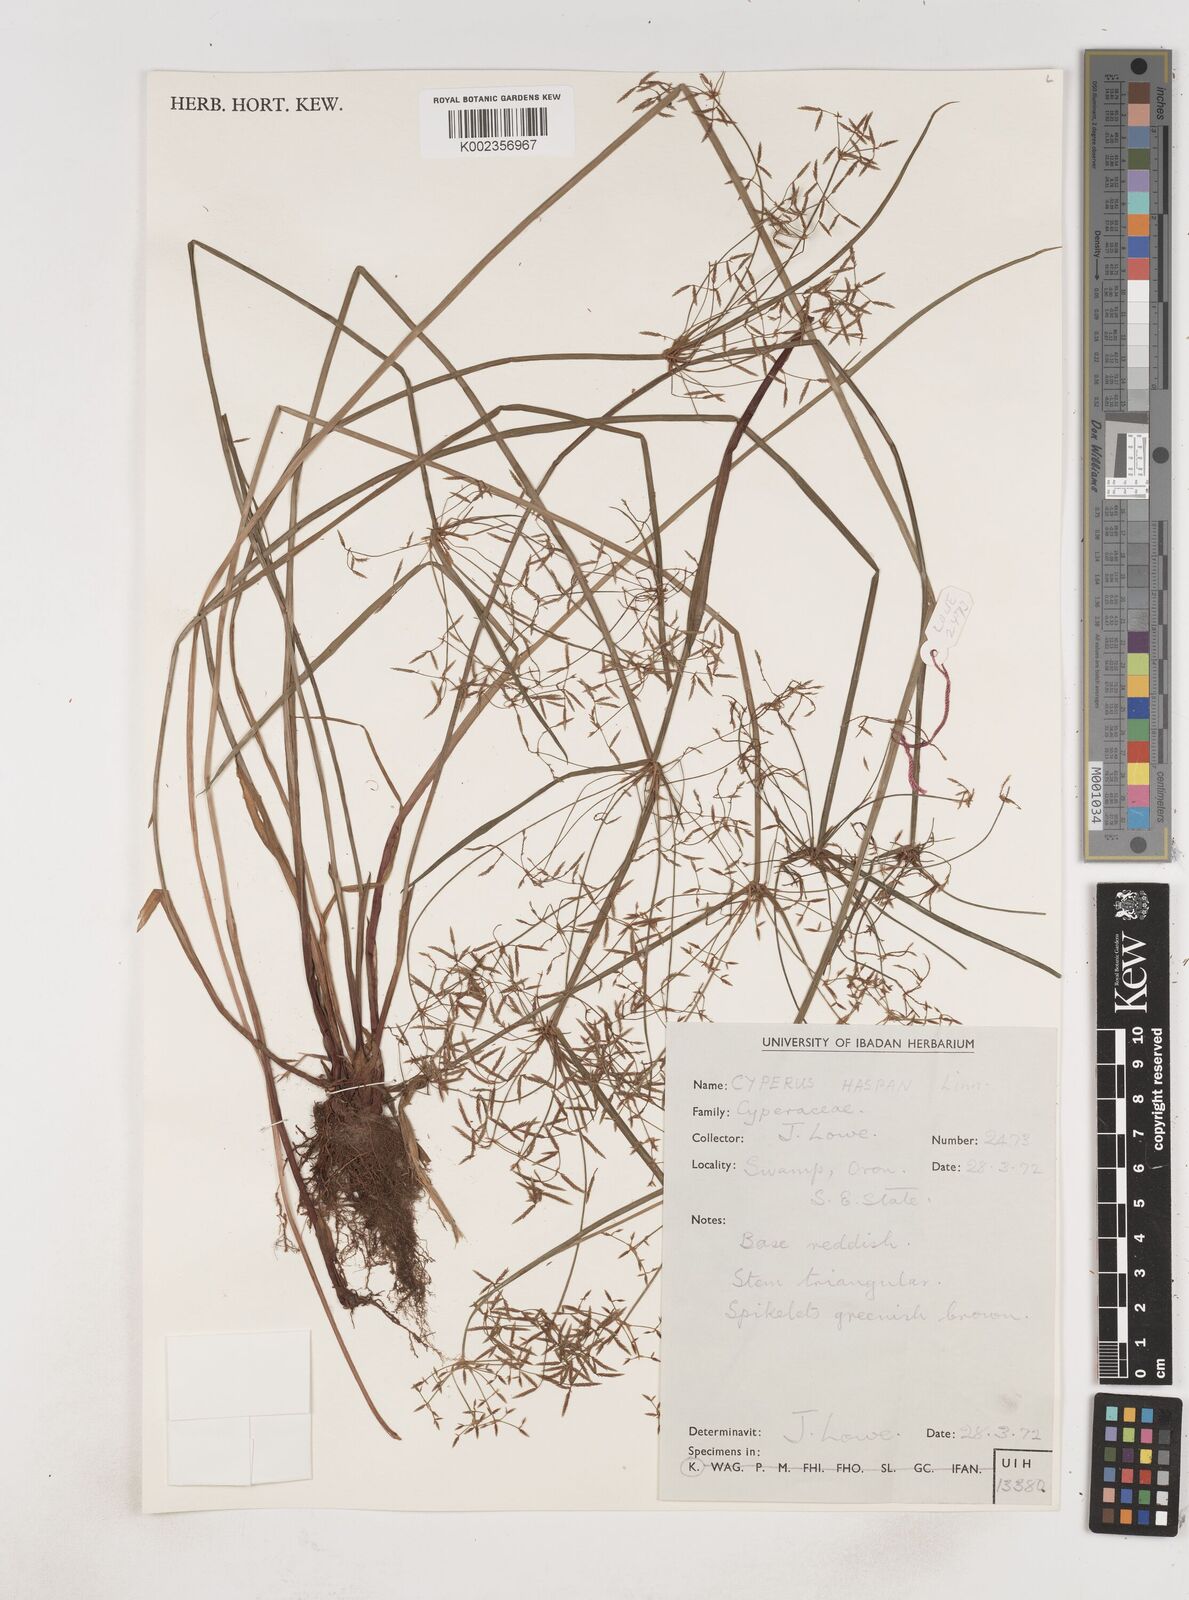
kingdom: Plantae
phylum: Tracheophyta
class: Liliopsida
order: Poales
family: Cyperaceae
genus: Cyperus
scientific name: Cyperus haspan
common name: Haspan flatsedge
